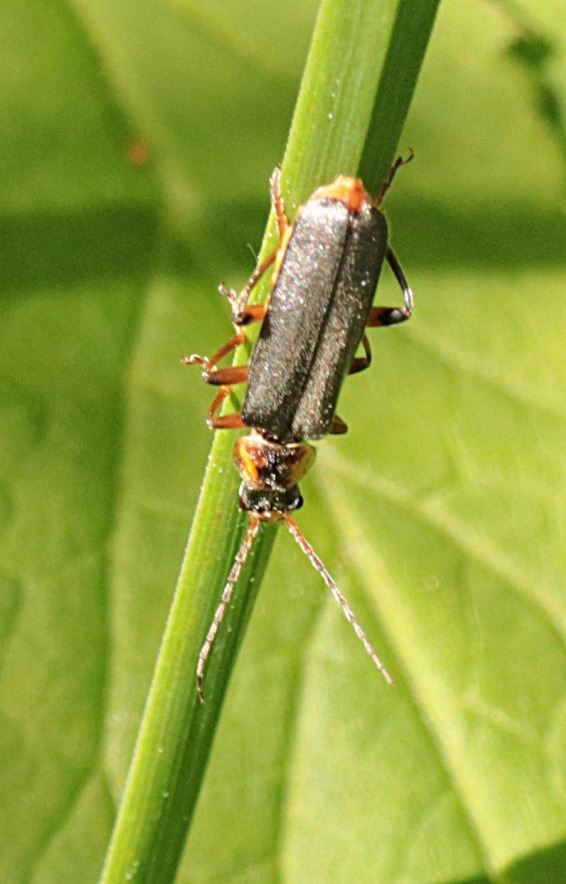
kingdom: Animalia
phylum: Arthropoda
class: Insecta
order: Coleoptera
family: Cantharidae
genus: Cantharis
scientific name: Cantharis nigricans
